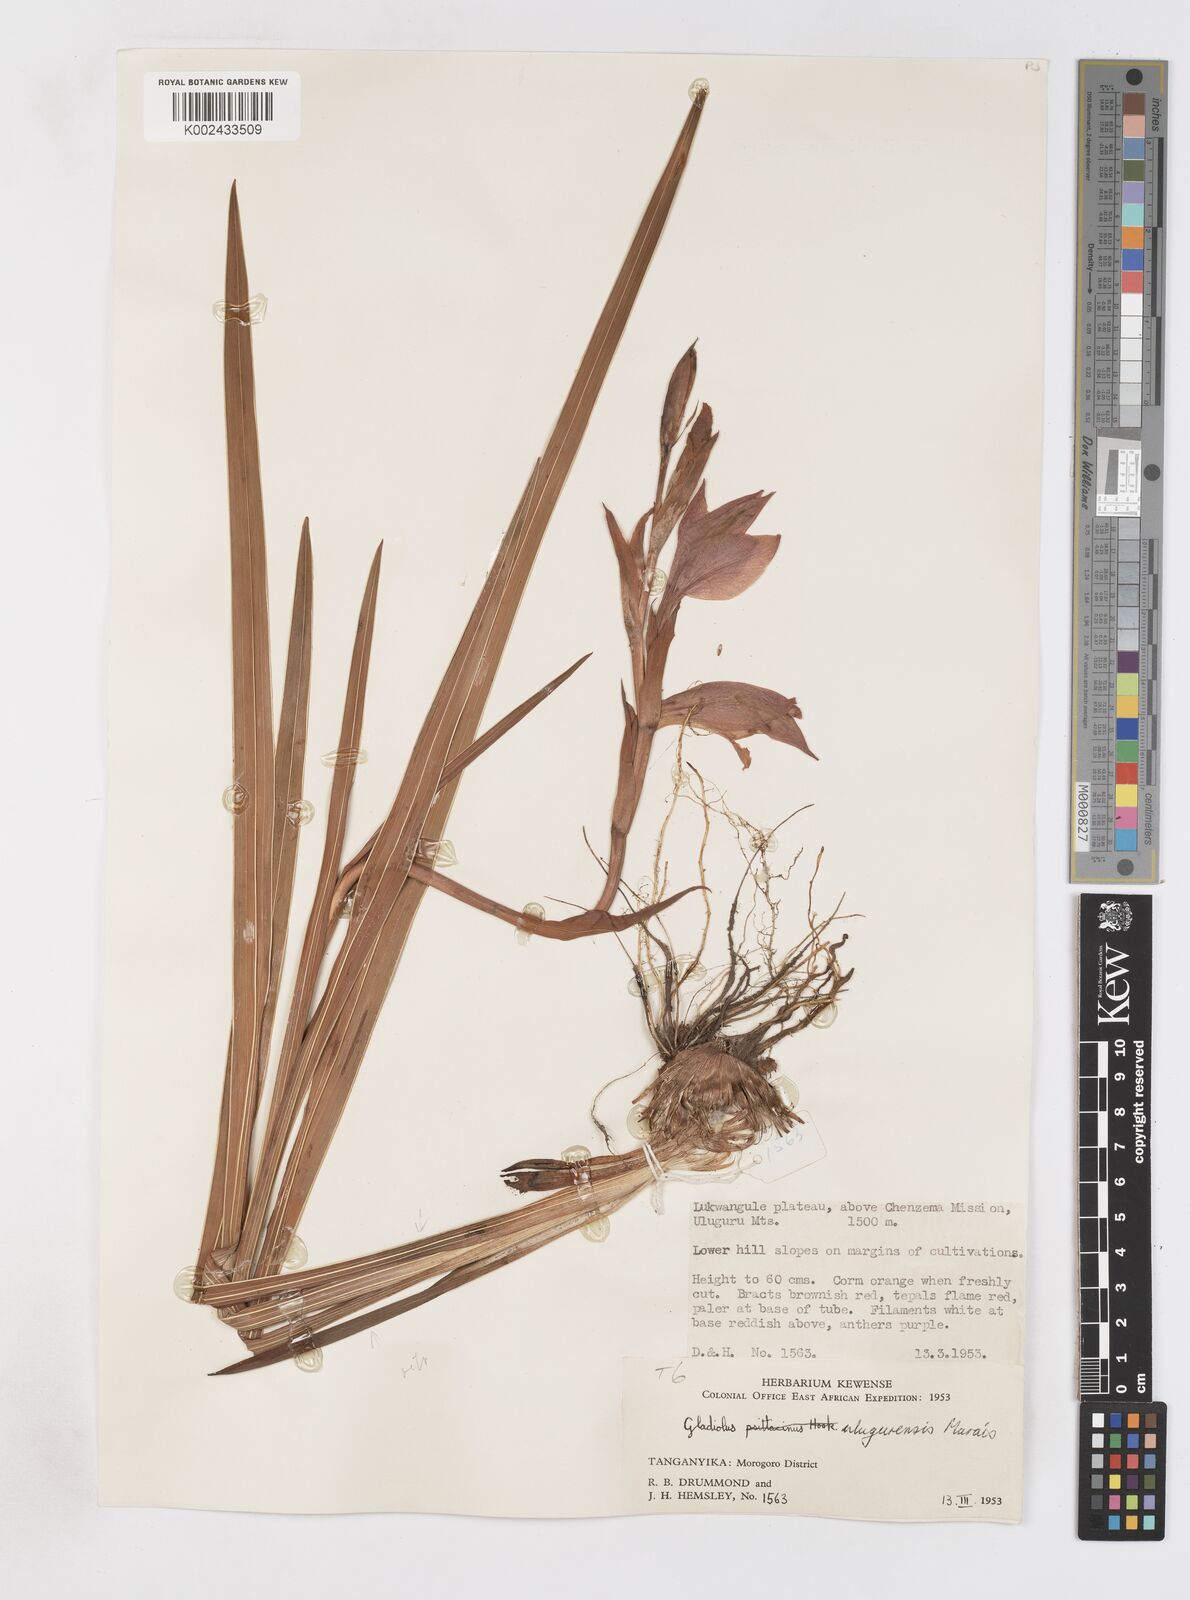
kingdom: Plantae
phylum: Tracheophyta
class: Liliopsida
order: Asparagales
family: Iridaceae
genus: Gladiolus
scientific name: Gladiolus dalenii
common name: Cornflag
